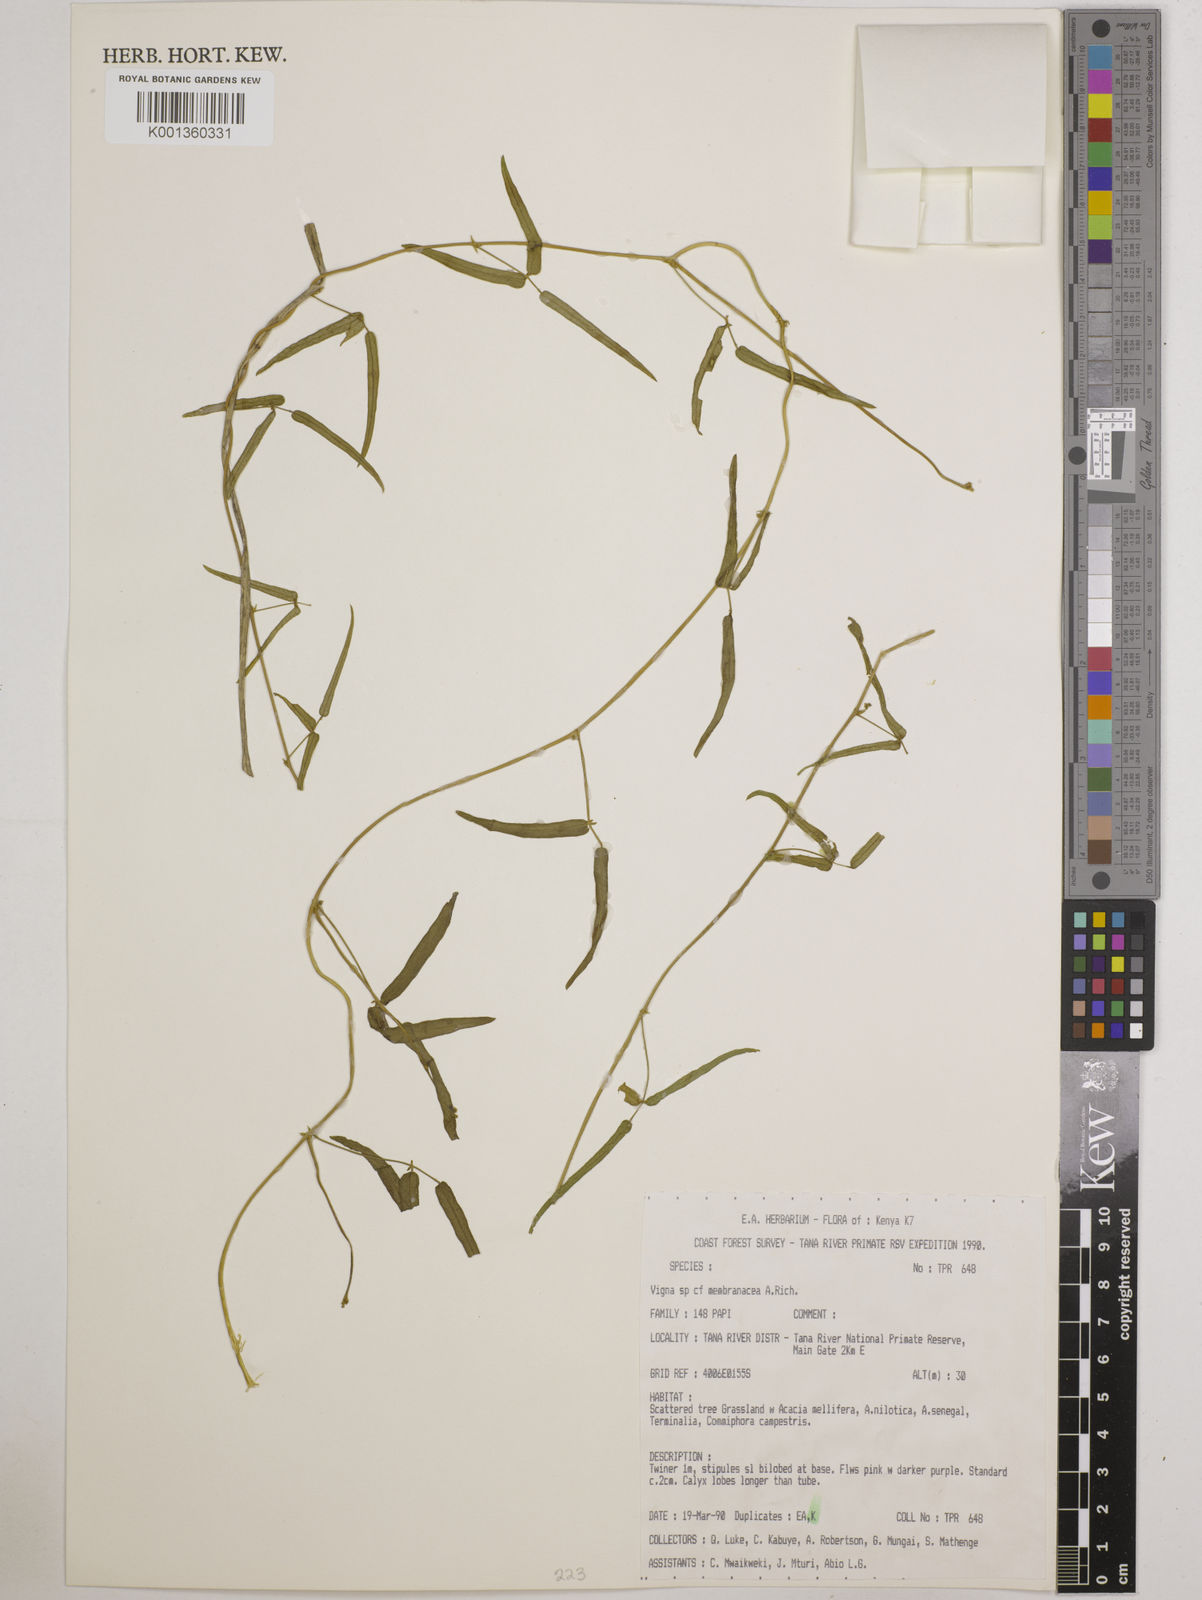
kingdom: Plantae
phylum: Tracheophyta
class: Magnoliopsida
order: Fabales
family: Fabaceae
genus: Vigna
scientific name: Vigna
